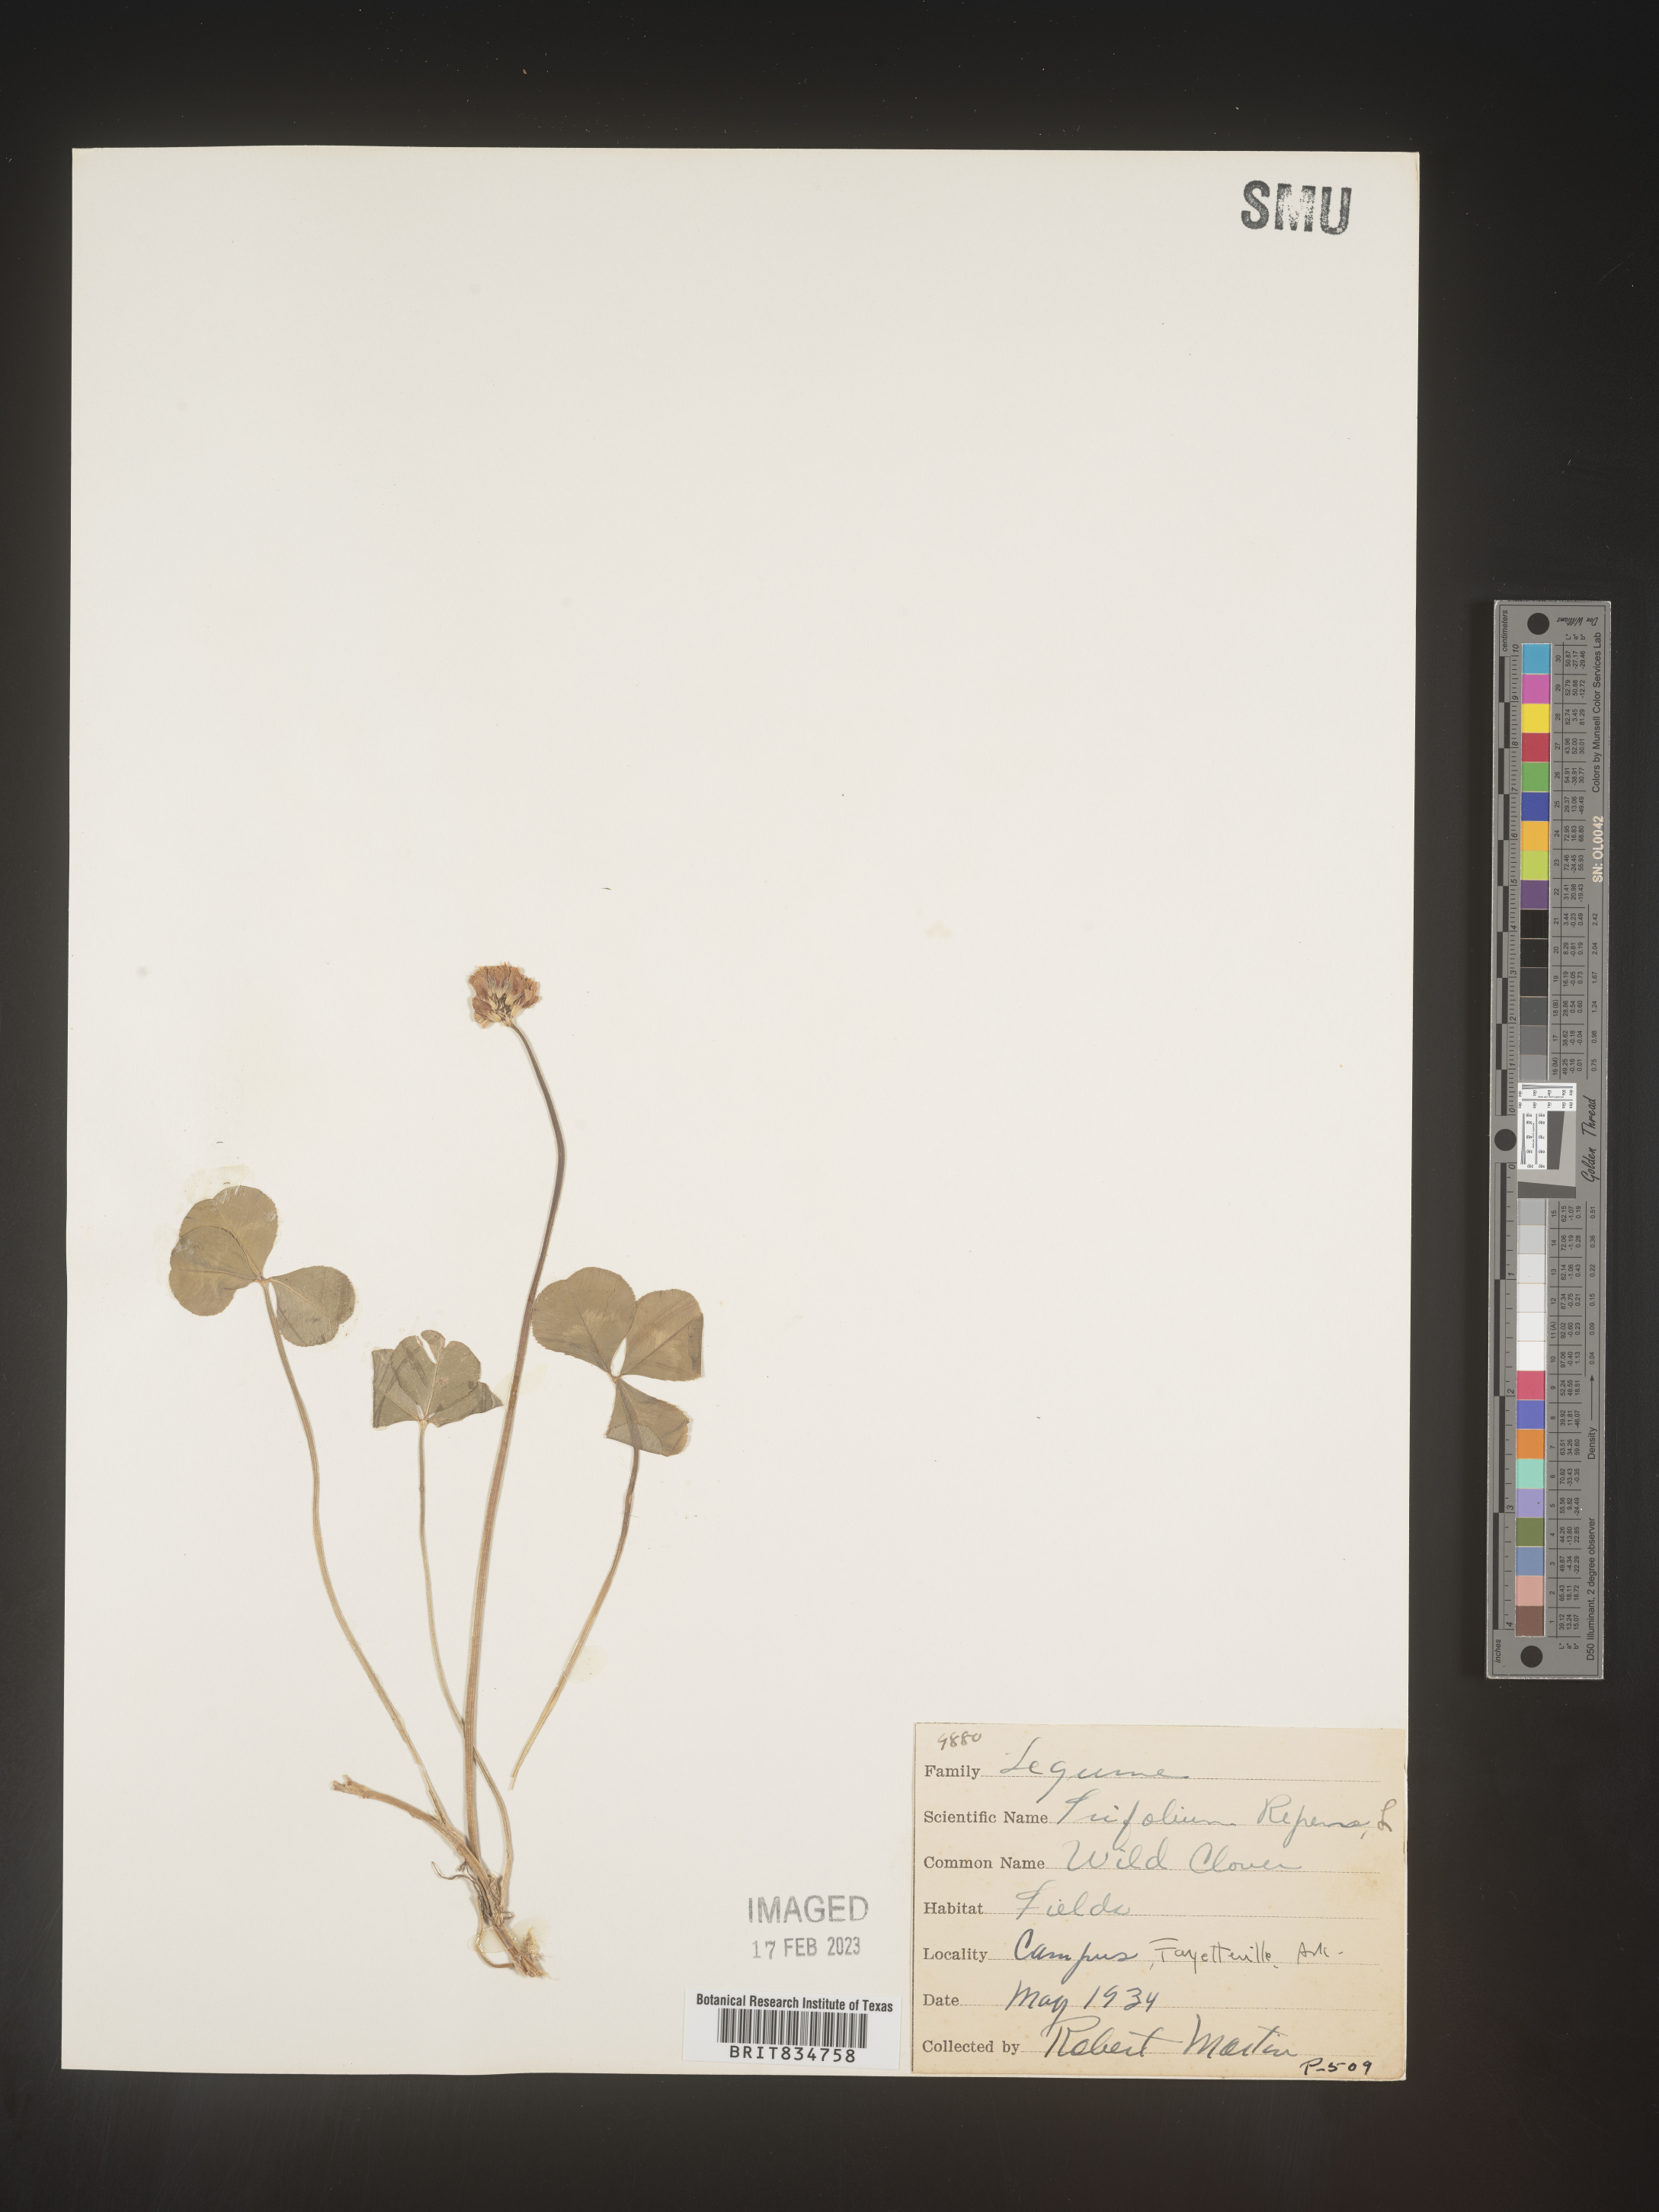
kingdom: Plantae
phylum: Tracheophyta
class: Magnoliopsida
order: Fabales
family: Fabaceae
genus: Trifolium
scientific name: Trifolium repens
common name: White clover
